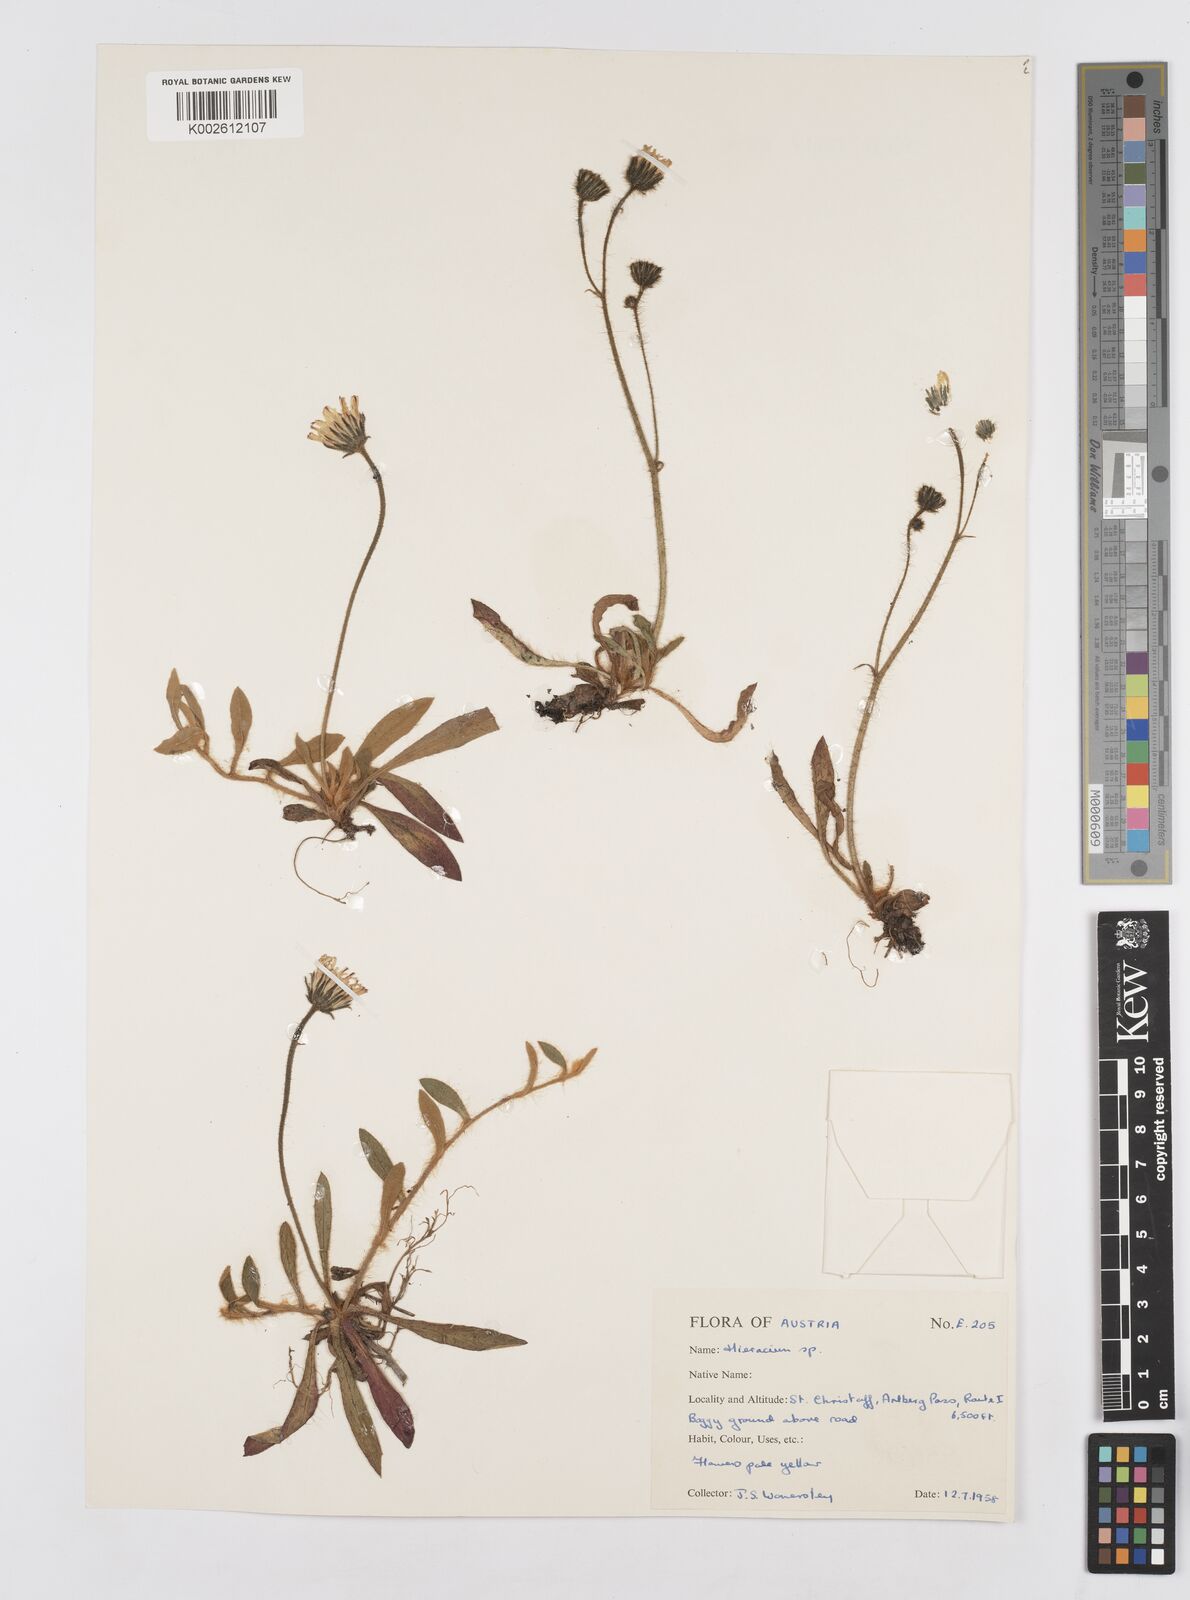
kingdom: Plantae
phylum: Tracheophyta
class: Magnoliopsida
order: Asterales
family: Asteraceae
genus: Hieracium
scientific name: Hieracium
